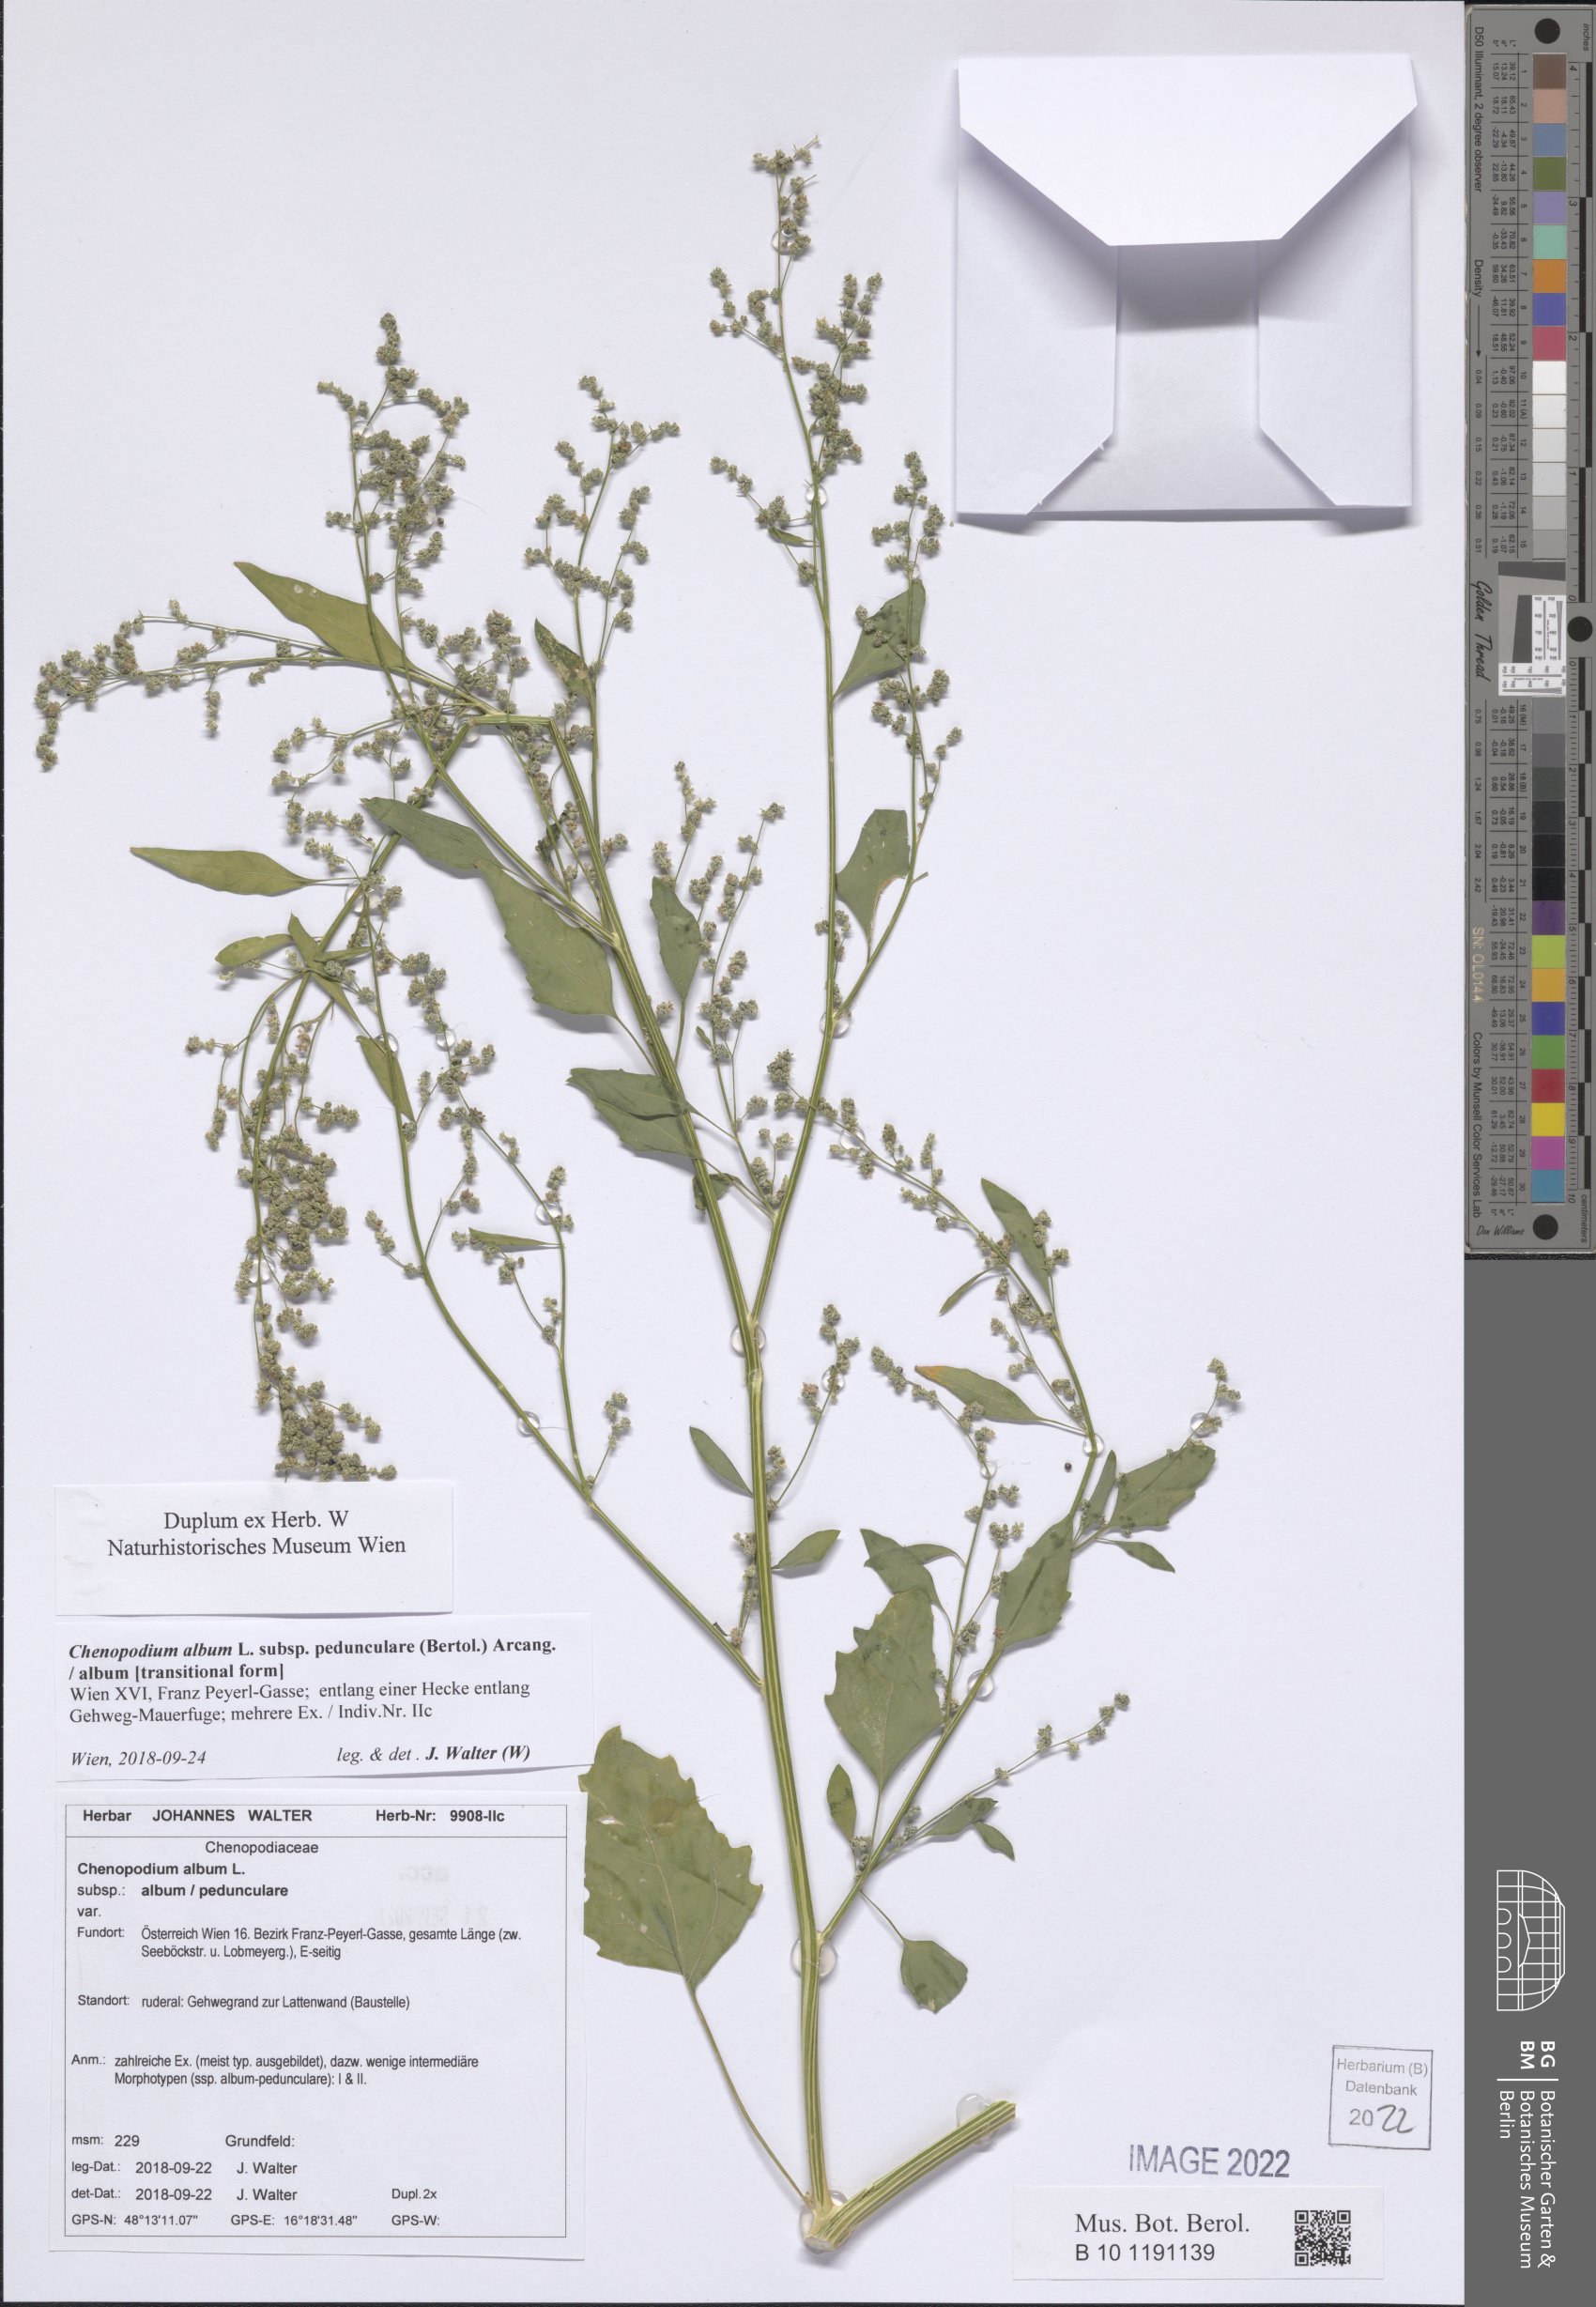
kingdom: Plantae
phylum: Tracheophyta
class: Magnoliopsida
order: Caryophyllales
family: Amaranthaceae
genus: Chenopodium
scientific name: Chenopodium album
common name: Fat-hen
